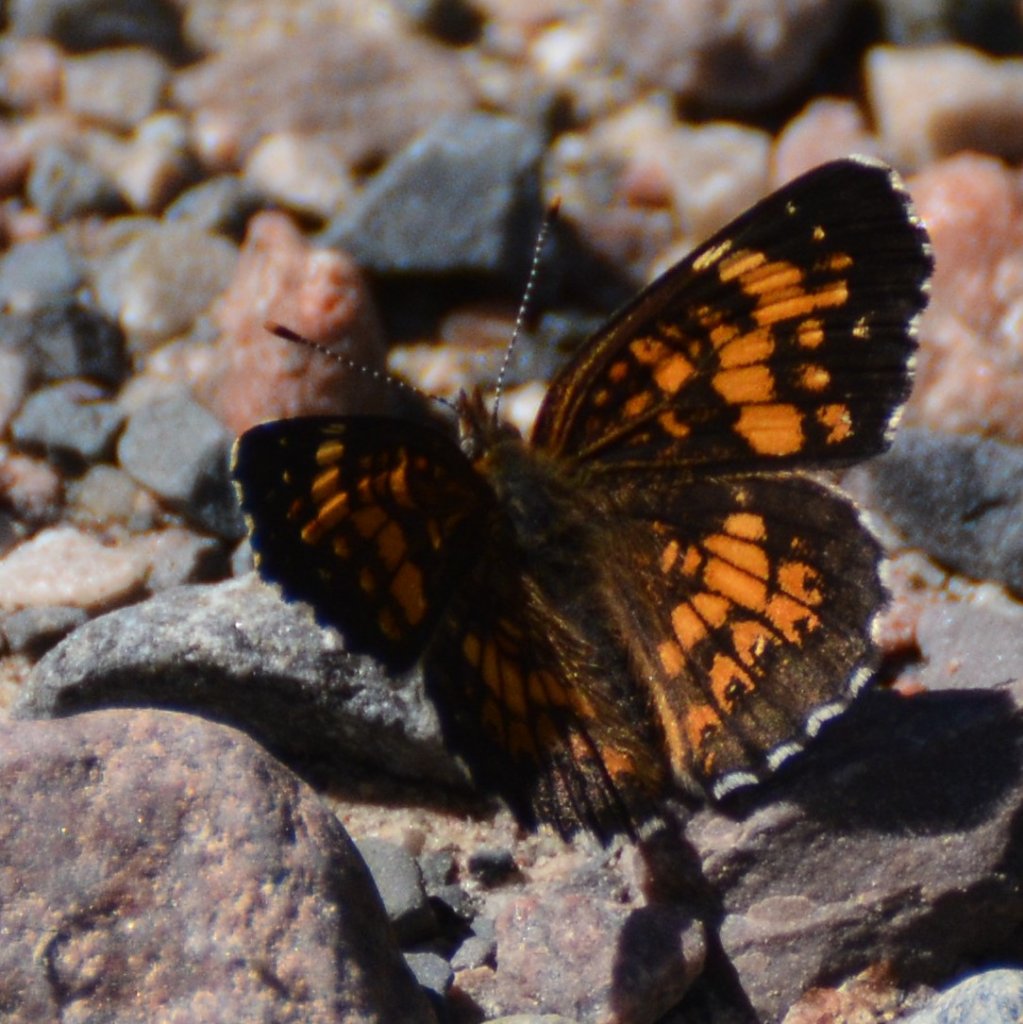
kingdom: Animalia
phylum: Arthropoda
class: Insecta
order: Lepidoptera
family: Nymphalidae
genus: Chlosyne
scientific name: Chlosyne harrisii
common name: Harris's Checkerspot
